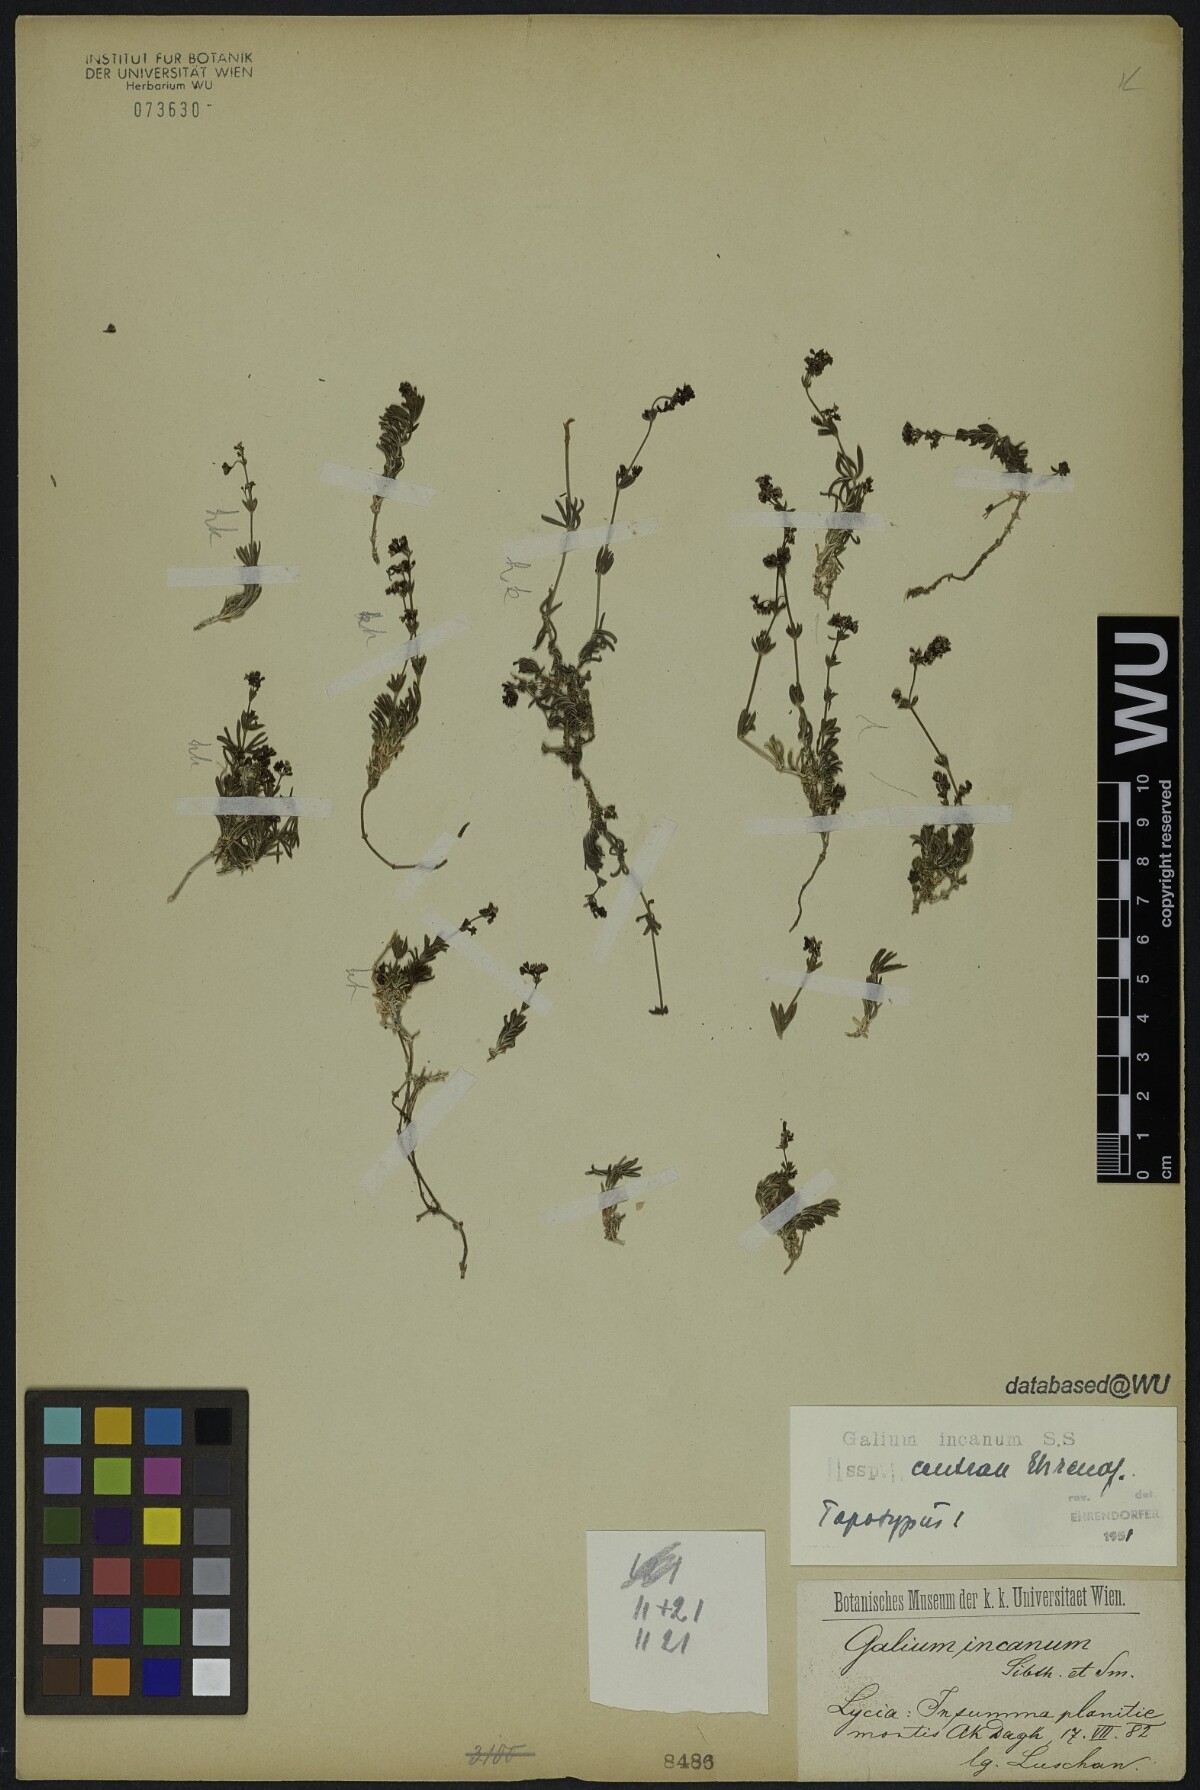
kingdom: Plantae
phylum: Tracheophyta
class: Magnoliopsida
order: Gentianales
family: Rubiaceae
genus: Galium
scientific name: Galium incanum
